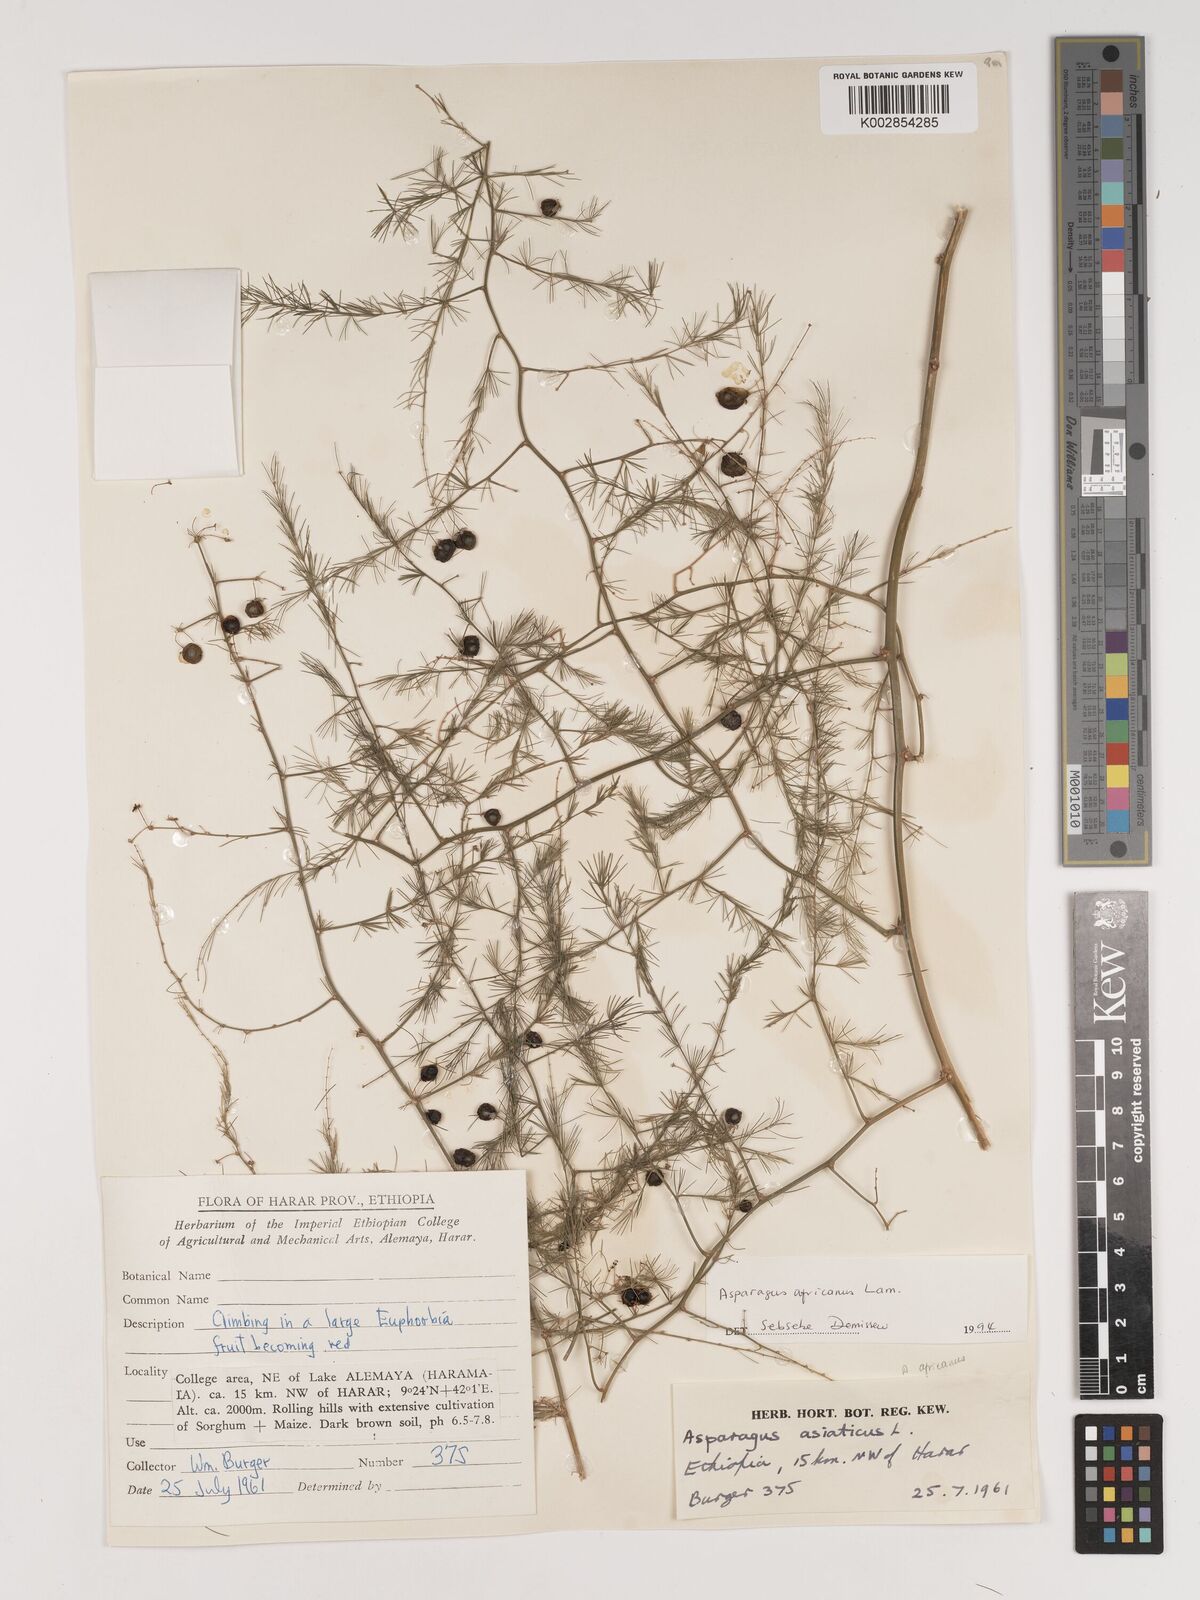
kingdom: Plantae
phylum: Tracheophyta
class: Liliopsida
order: Asparagales
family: Asparagaceae
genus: Asparagus
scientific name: Asparagus africanus
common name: Asparagus-fern
